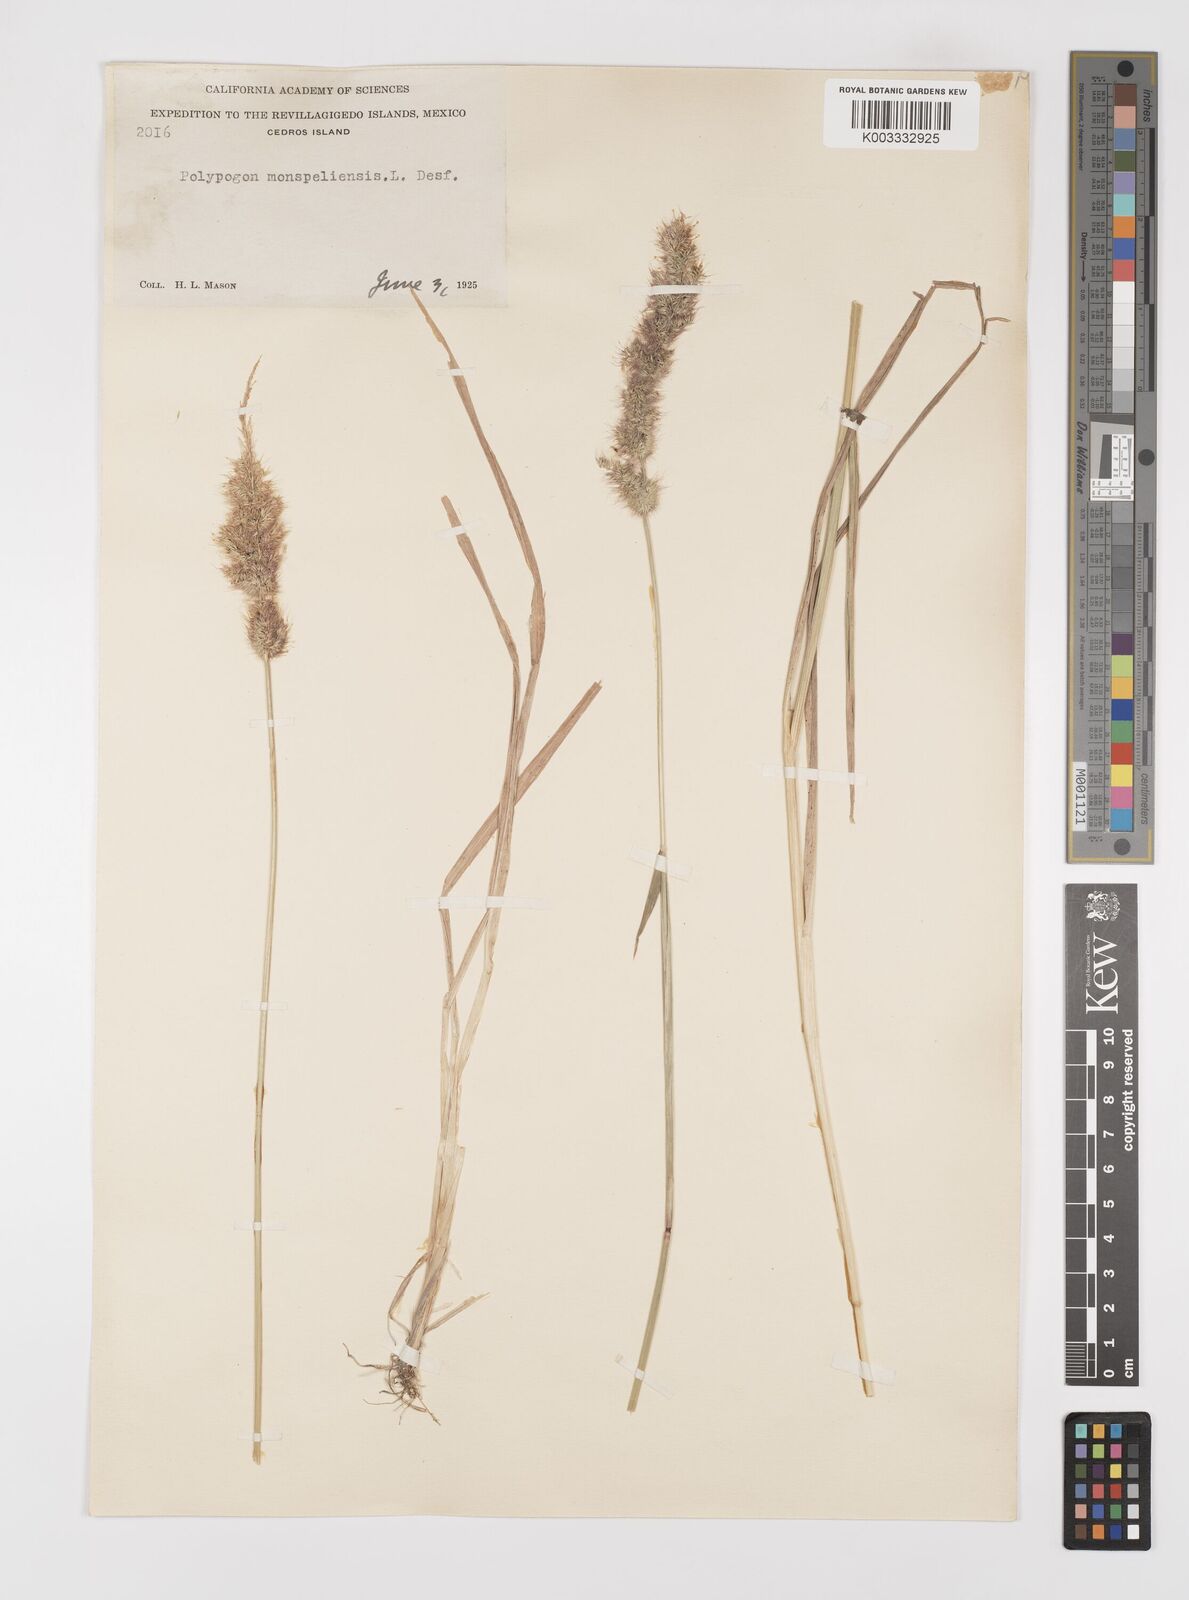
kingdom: Plantae
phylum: Tracheophyta
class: Liliopsida
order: Poales
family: Poaceae
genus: Polypogon
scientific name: Polypogon interruptus
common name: Ditch polypogon
